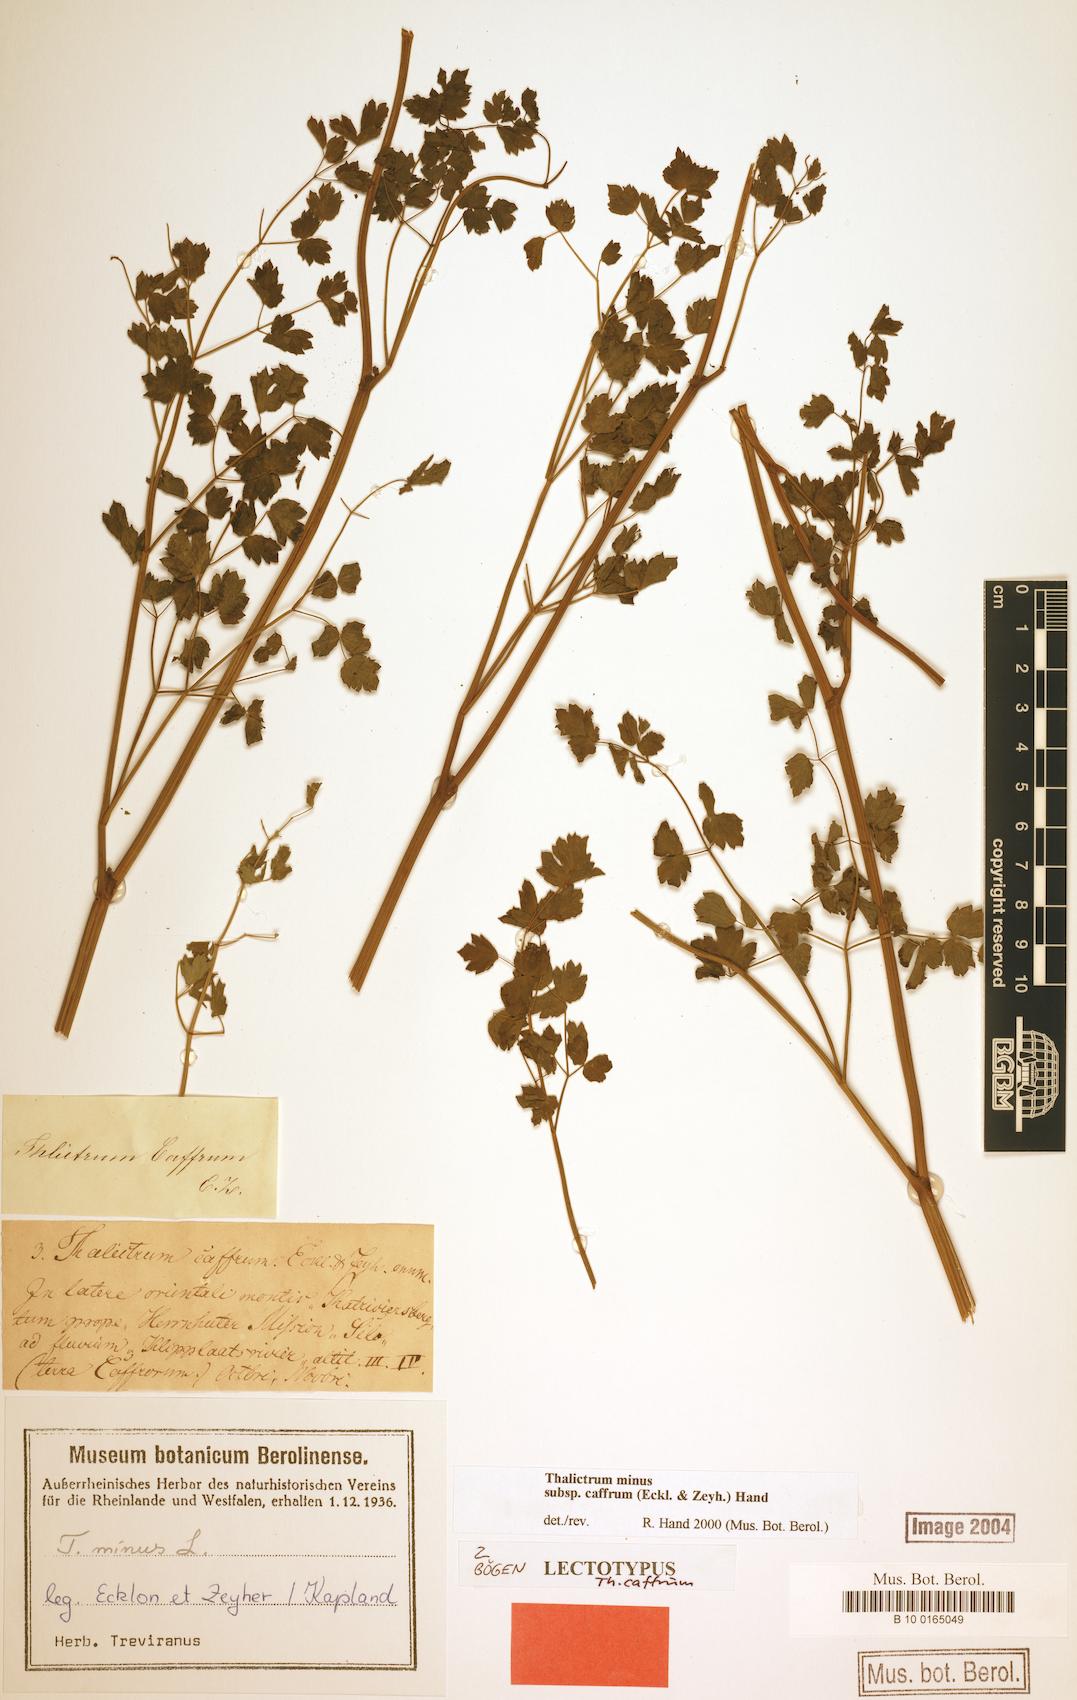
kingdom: Plantae
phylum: Tracheophyta
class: Magnoliopsida
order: Ranunculales
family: Ranunculaceae
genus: Thalictrum
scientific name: Thalictrum minus
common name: Lesser meadow-rue
